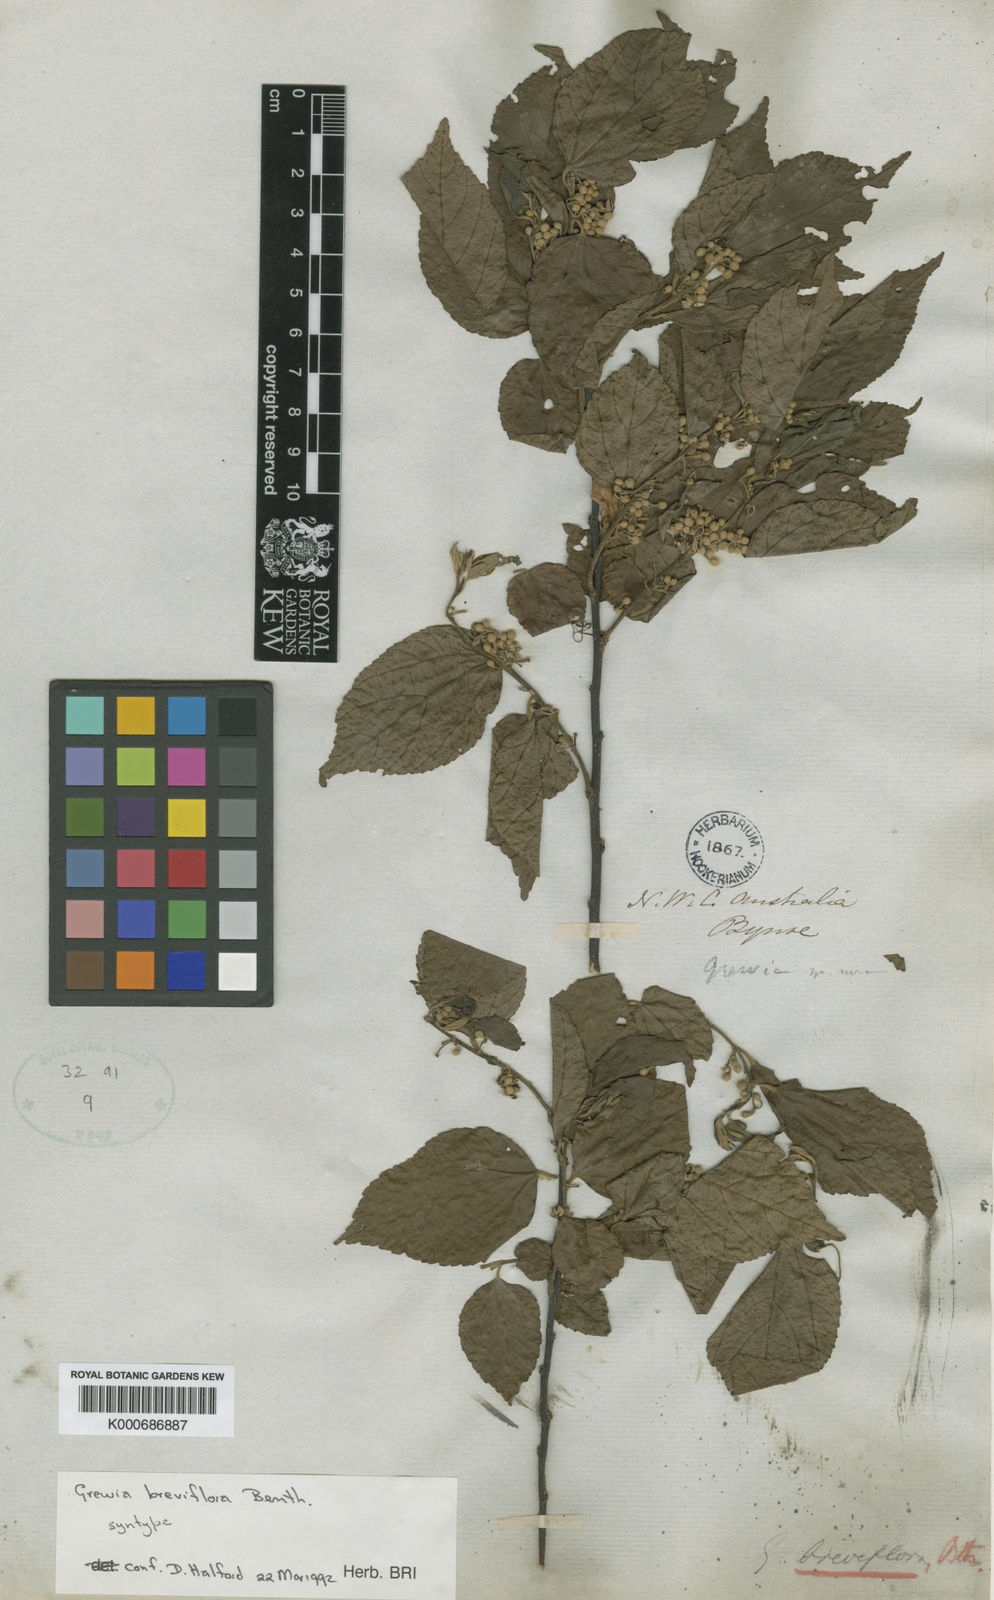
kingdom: Plantae
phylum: Tracheophyta
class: Magnoliopsida
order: Malvales
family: Malvaceae
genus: Grewia
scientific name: Grewia breviflora
